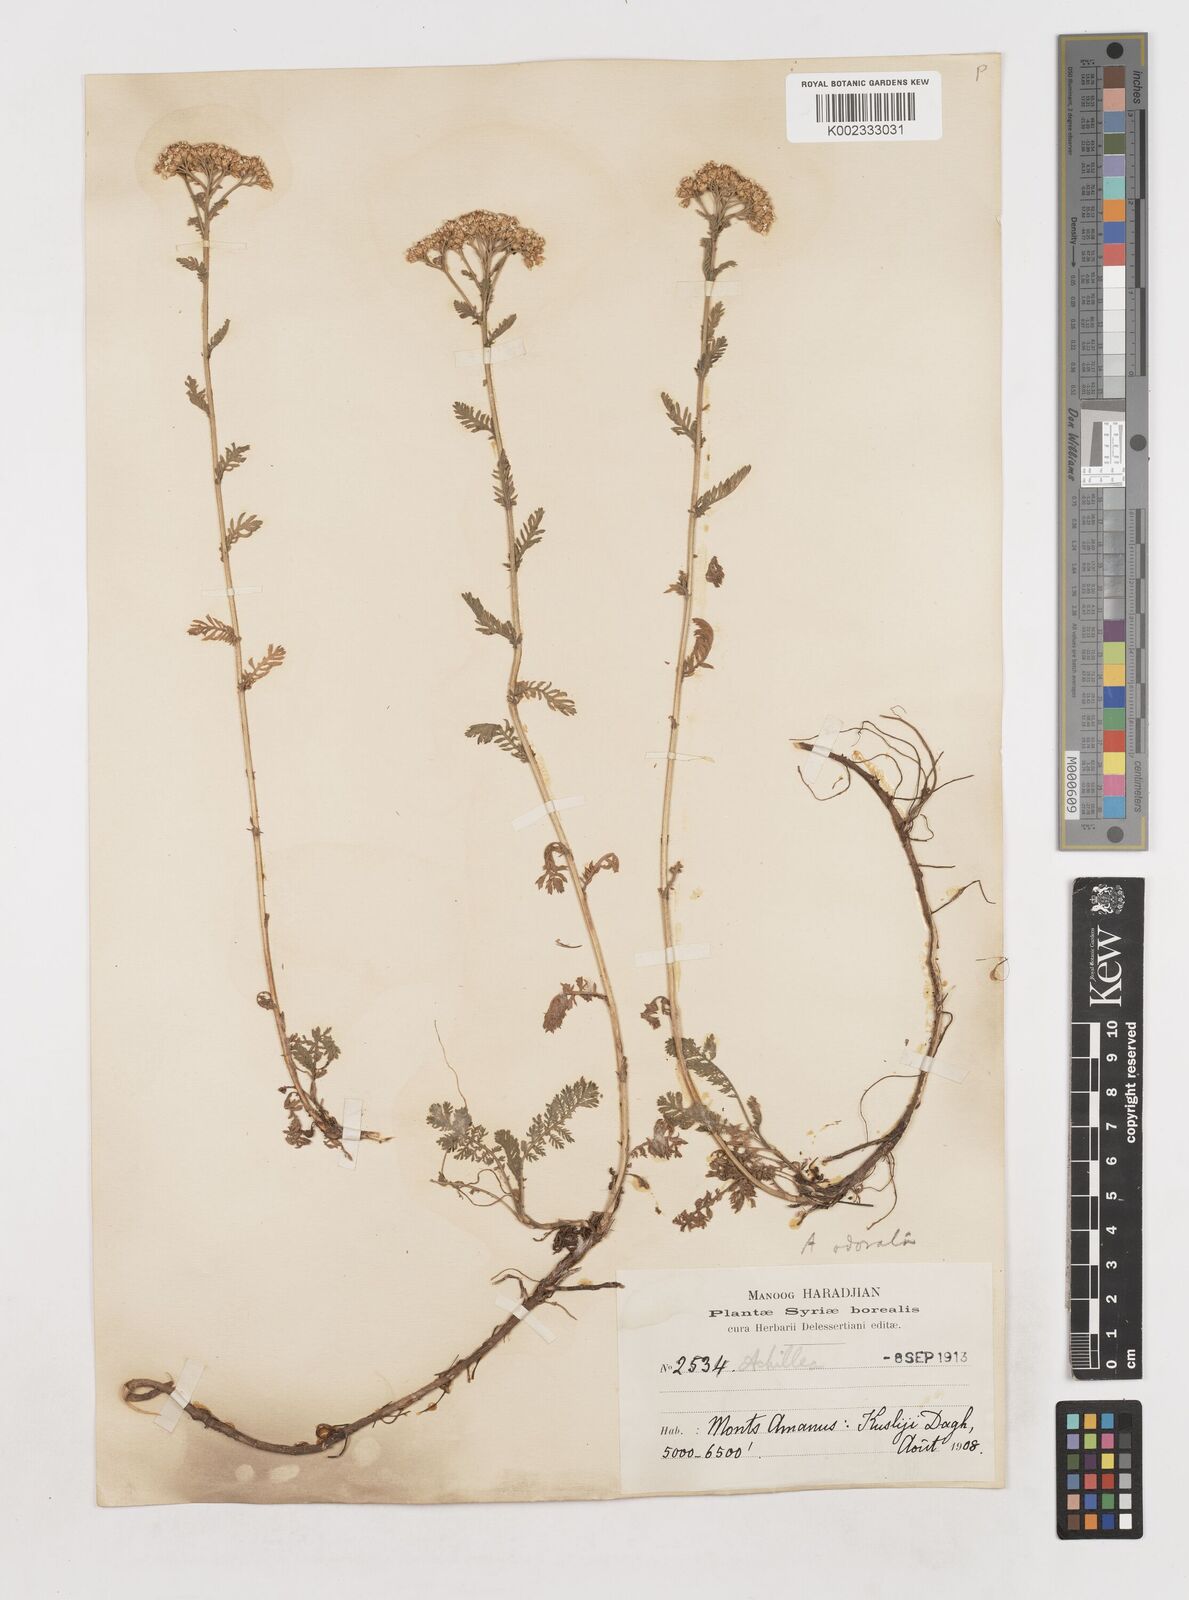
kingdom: Plantae
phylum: Tracheophyta
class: Magnoliopsida
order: Asterales
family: Asteraceae
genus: Achillea
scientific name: Achillea
